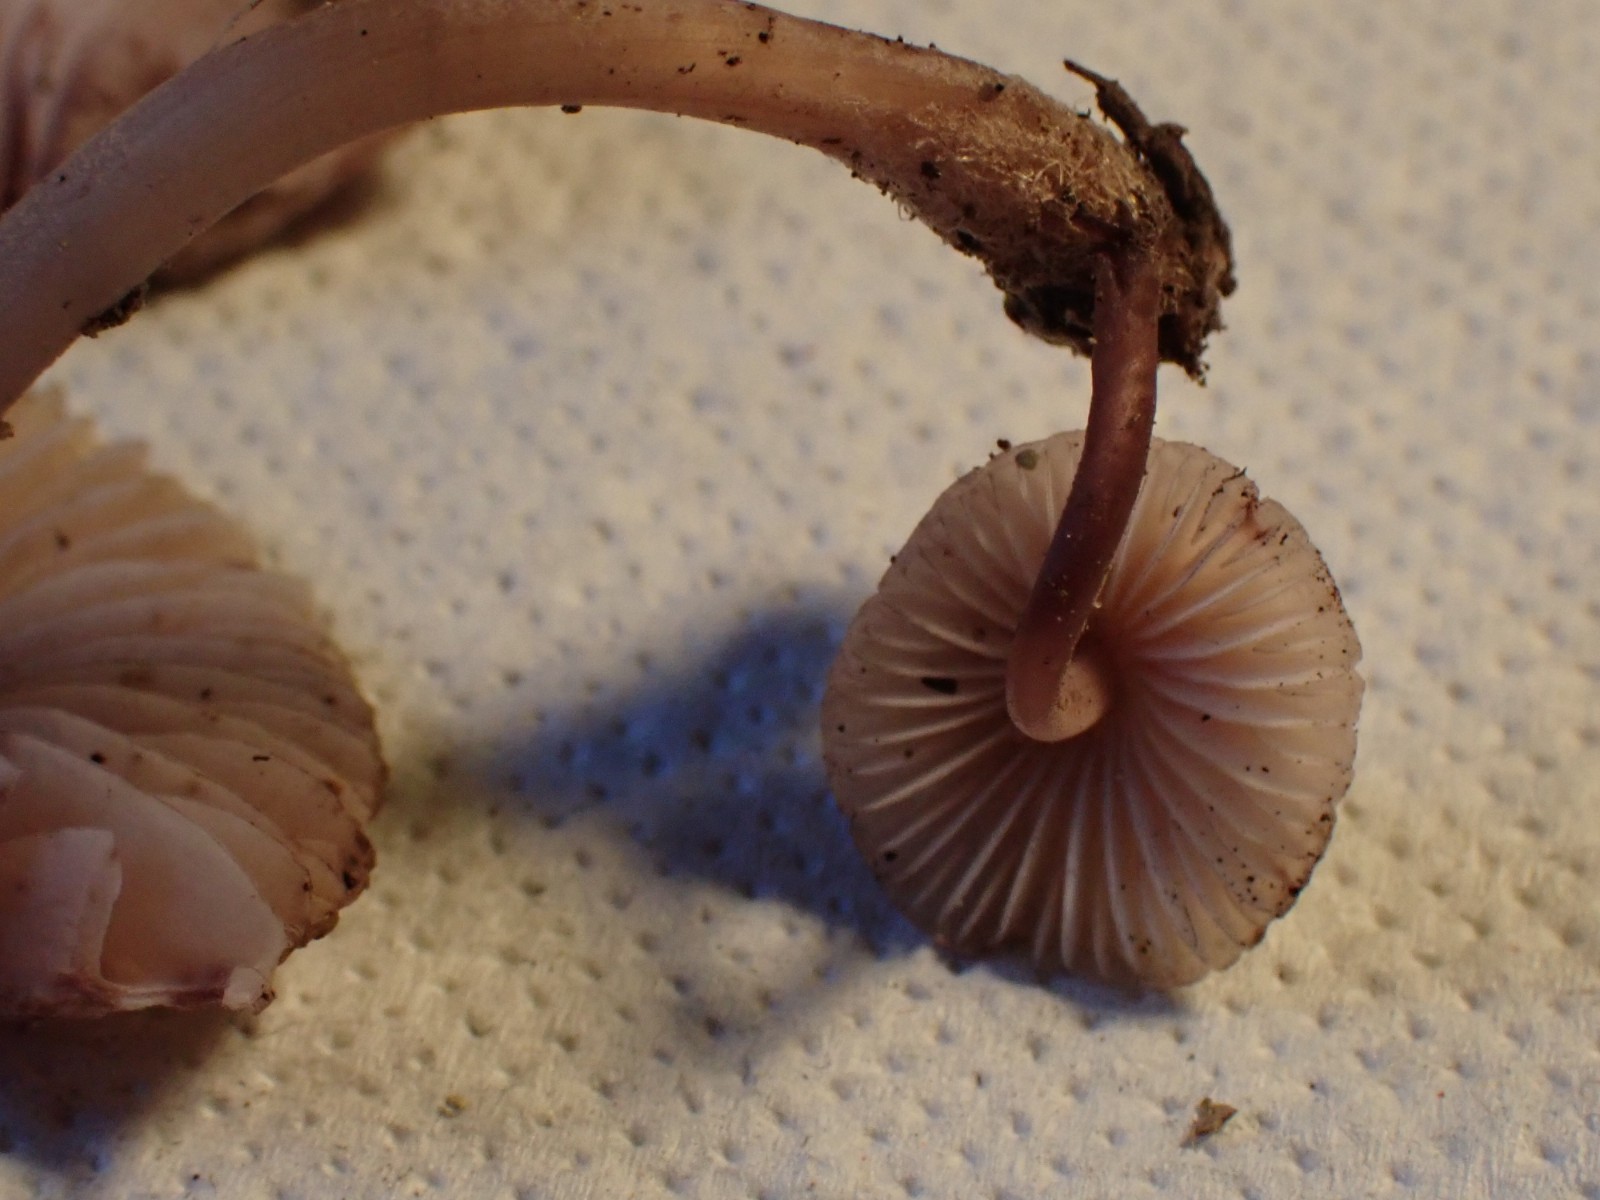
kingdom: Fungi
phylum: Basidiomycota
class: Agaricomycetes
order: Agaricales
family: Mycenaceae
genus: Mycena
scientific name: Mycena haematopus
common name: blødende huesvamp
